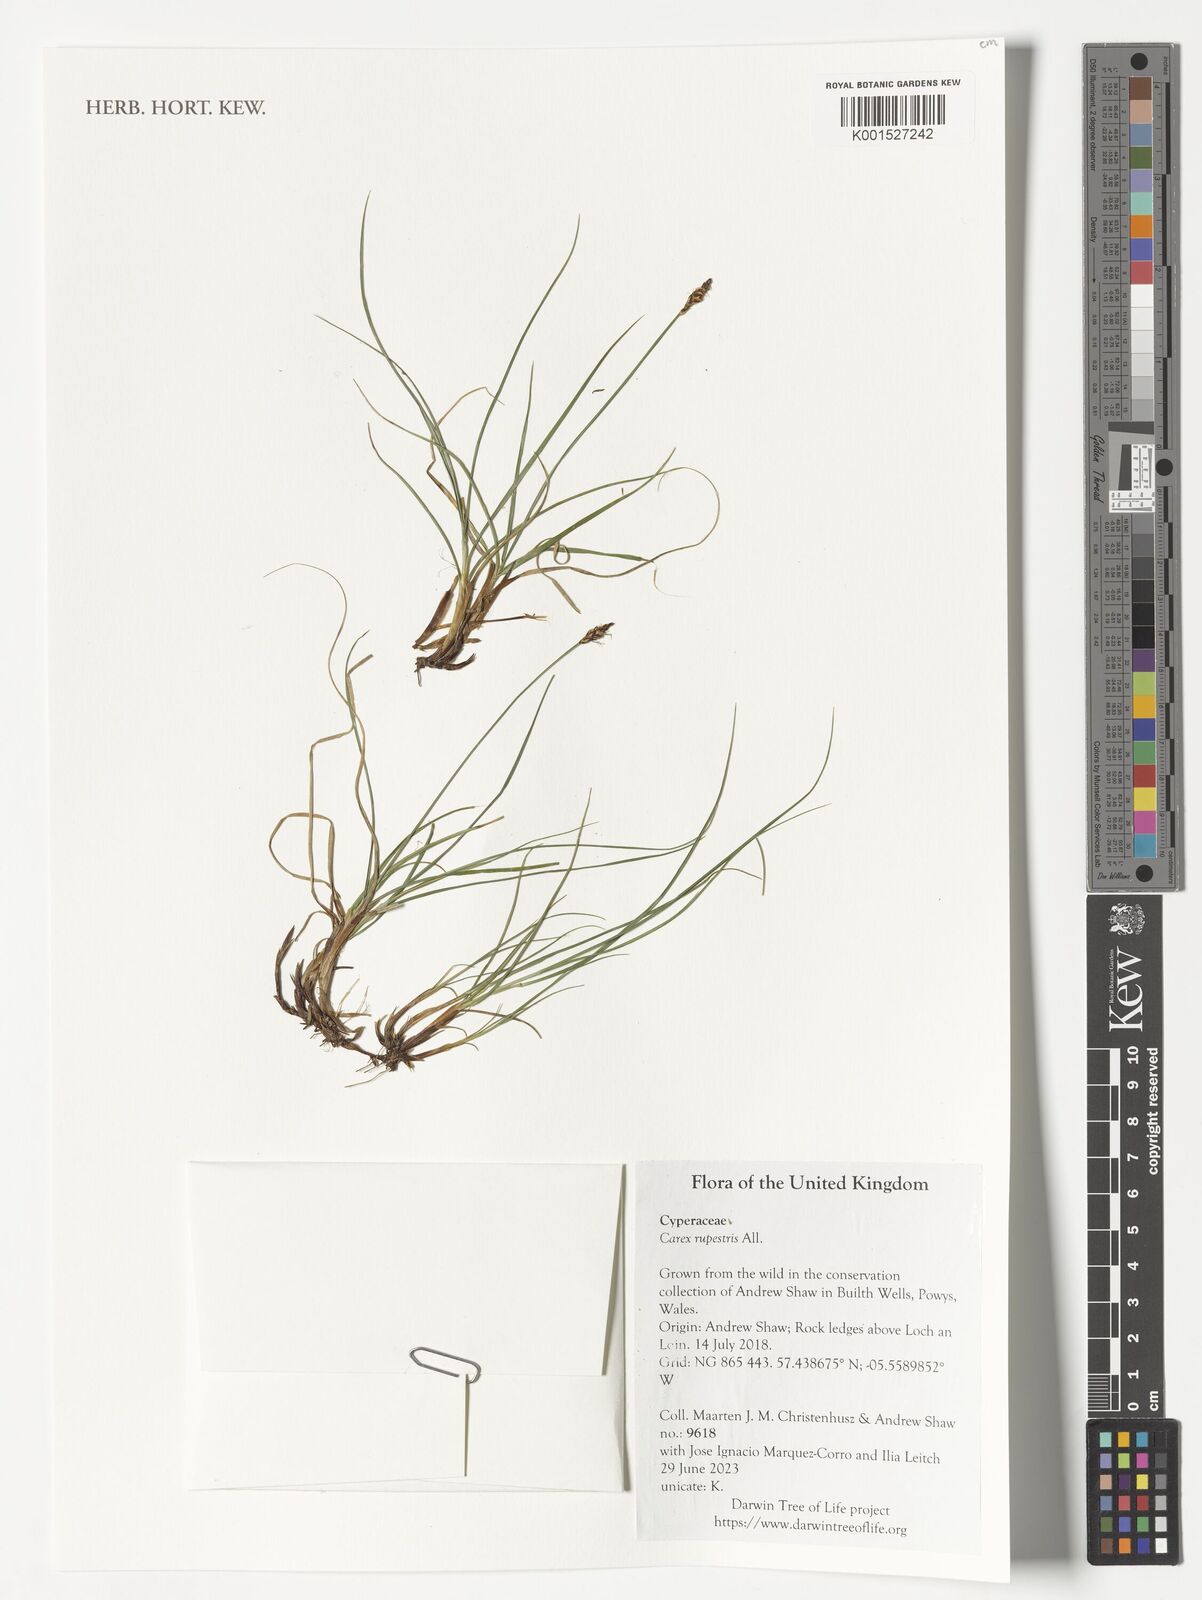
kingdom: Plantae
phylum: Tracheophyta
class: Liliopsida
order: Poales
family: Cyperaceae
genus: Carex
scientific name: Carex rupestris
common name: Rock sedge
